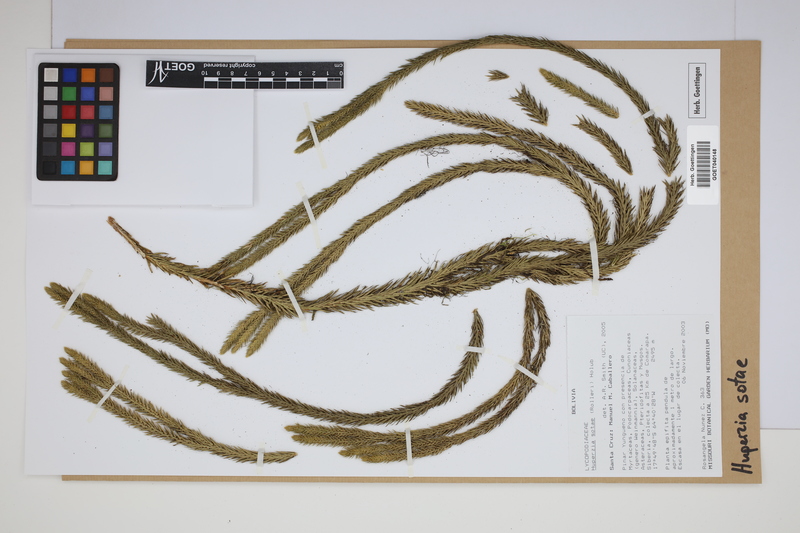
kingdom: Plantae
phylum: Tracheophyta
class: Lycopodiopsida
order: Lycopodiales
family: Lycopodiaceae
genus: Phlegmariurus
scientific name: Phlegmariurus sotae
